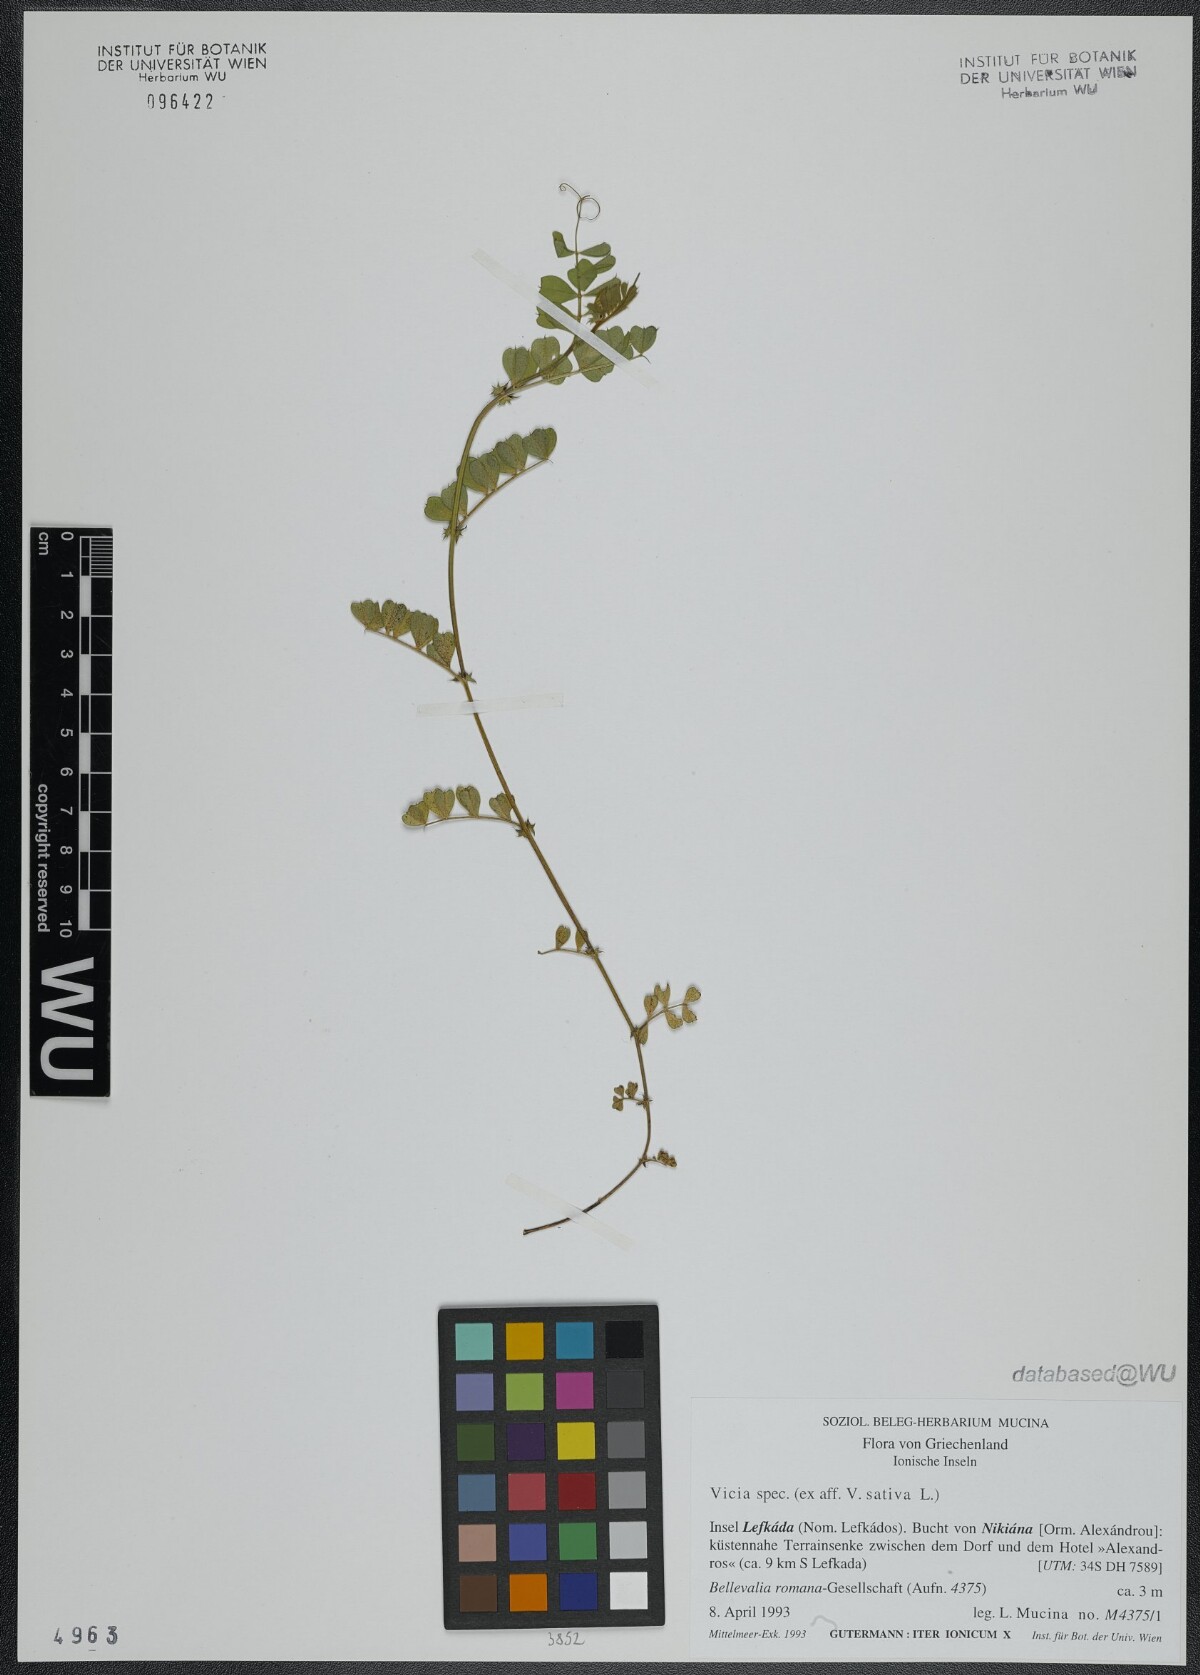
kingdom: Plantae
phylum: Tracheophyta
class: Magnoliopsida
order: Fabales
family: Fabaceae
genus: Vicia
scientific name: Vicia sativa
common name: Garden vetch
